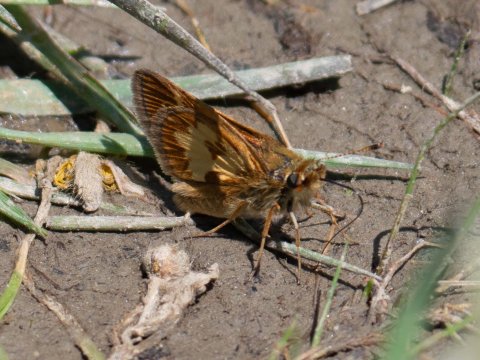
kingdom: Animalia
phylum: Arthropoda
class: Insecta
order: Lepidoptera
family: Hesperiidae
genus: Polites
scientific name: Polites coras
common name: Peck's Skipper
